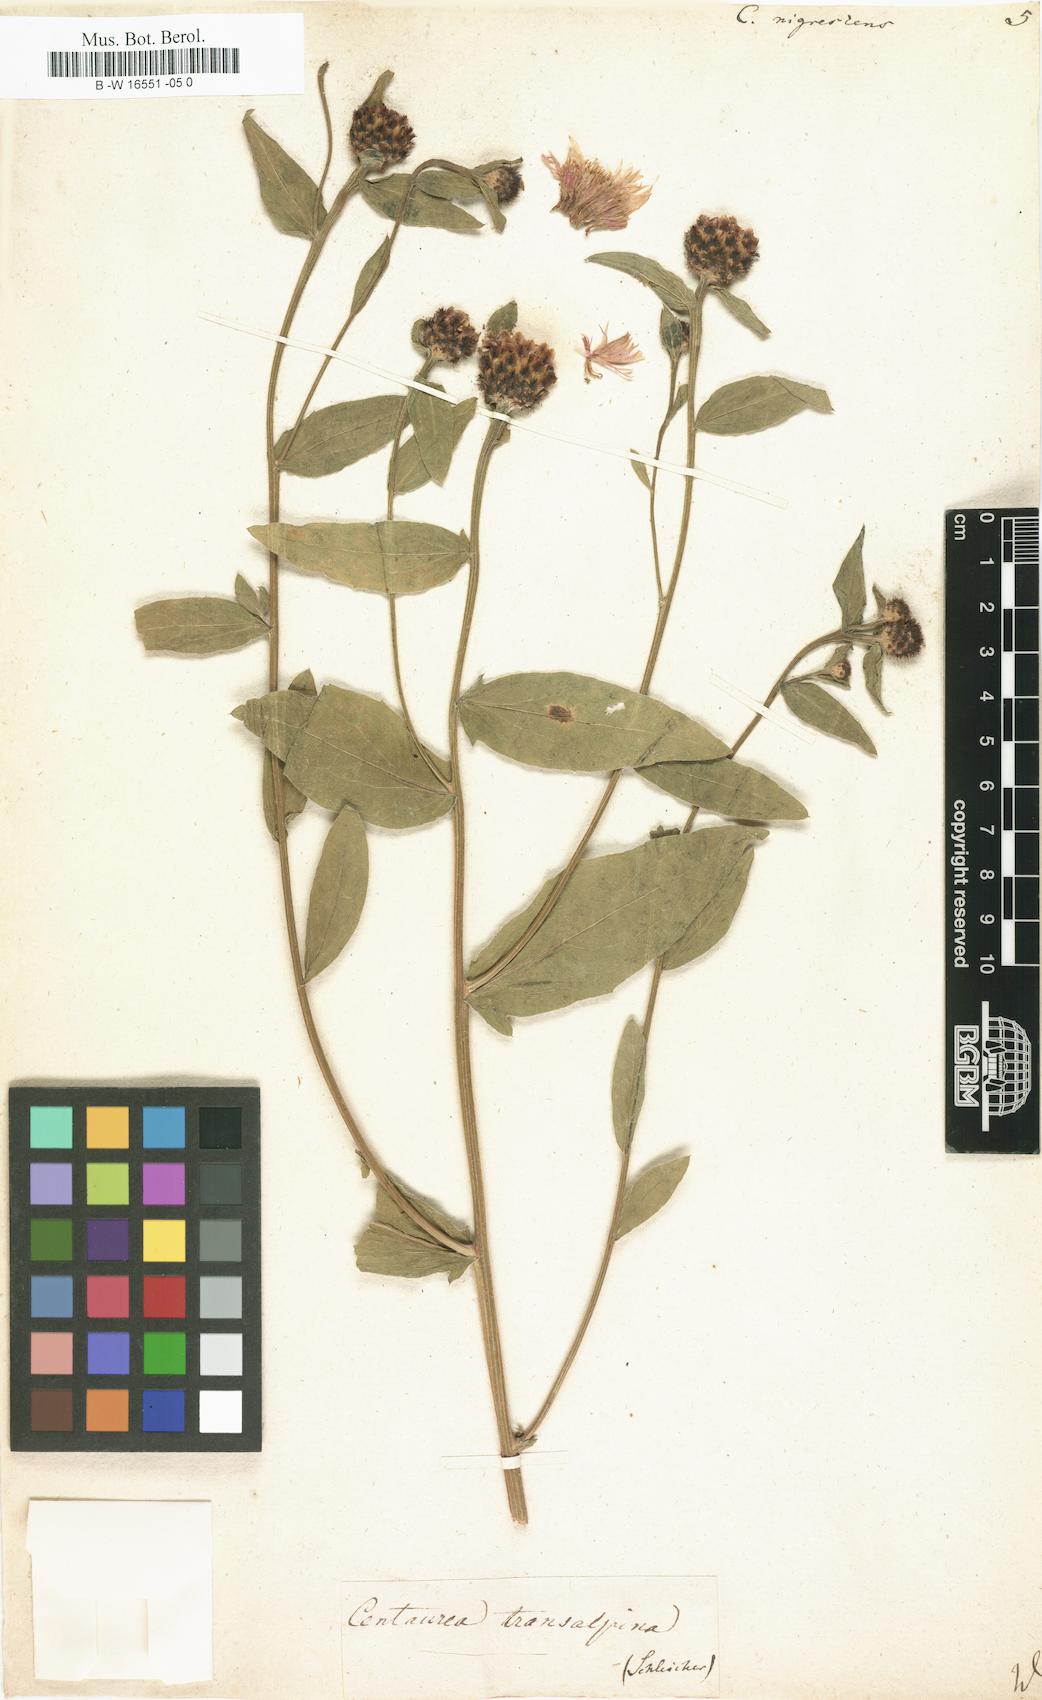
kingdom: Plantae
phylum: Tracheophyta
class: Magnoliopsida
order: Asterales
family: Asteraceae
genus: Centaurea
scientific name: Centaurea nigrescens
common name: Tyrol knapweed
